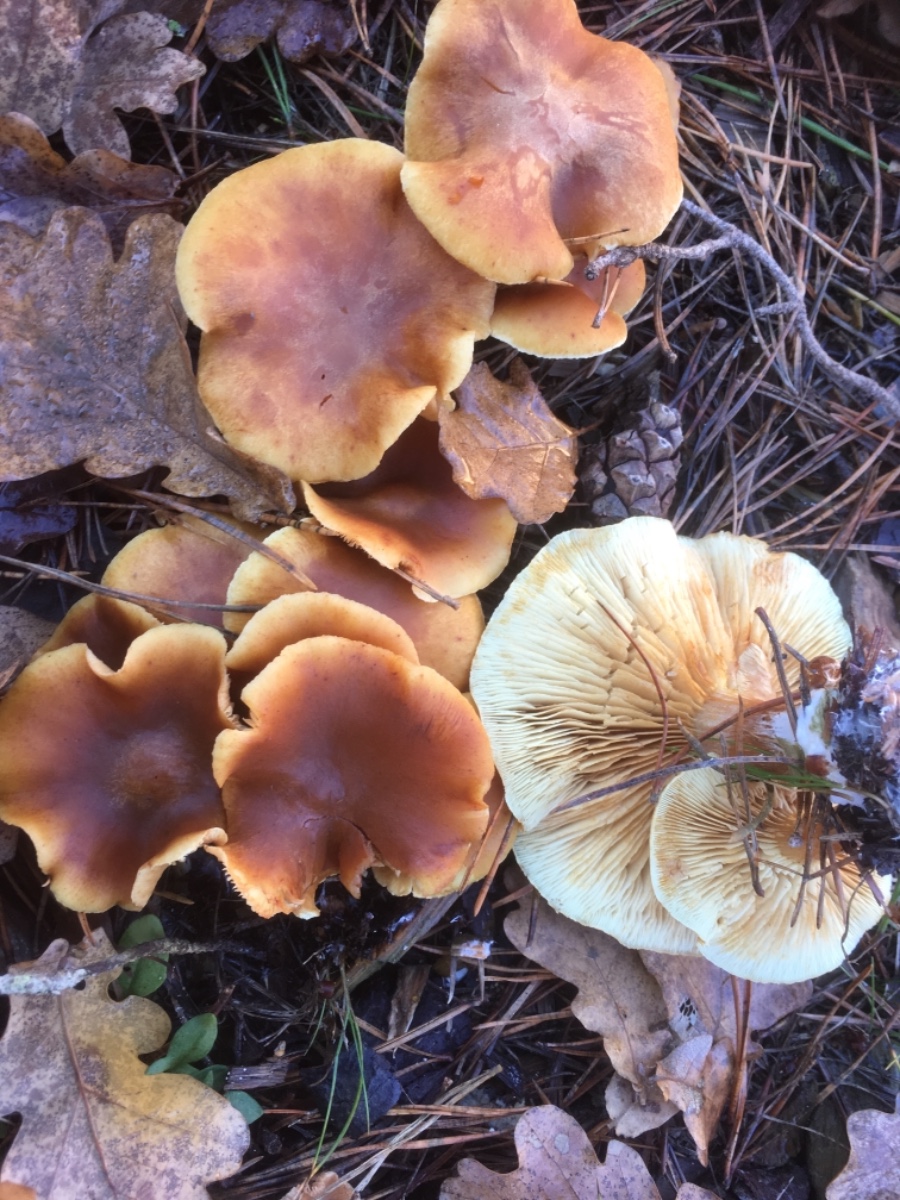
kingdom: Fungi
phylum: Basidiomycota
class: Agaricomycetes
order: Agaricales
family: Hymenogastraceae
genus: Gymnopilus
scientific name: Gymnopilus penetrans
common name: plettet flammehat
